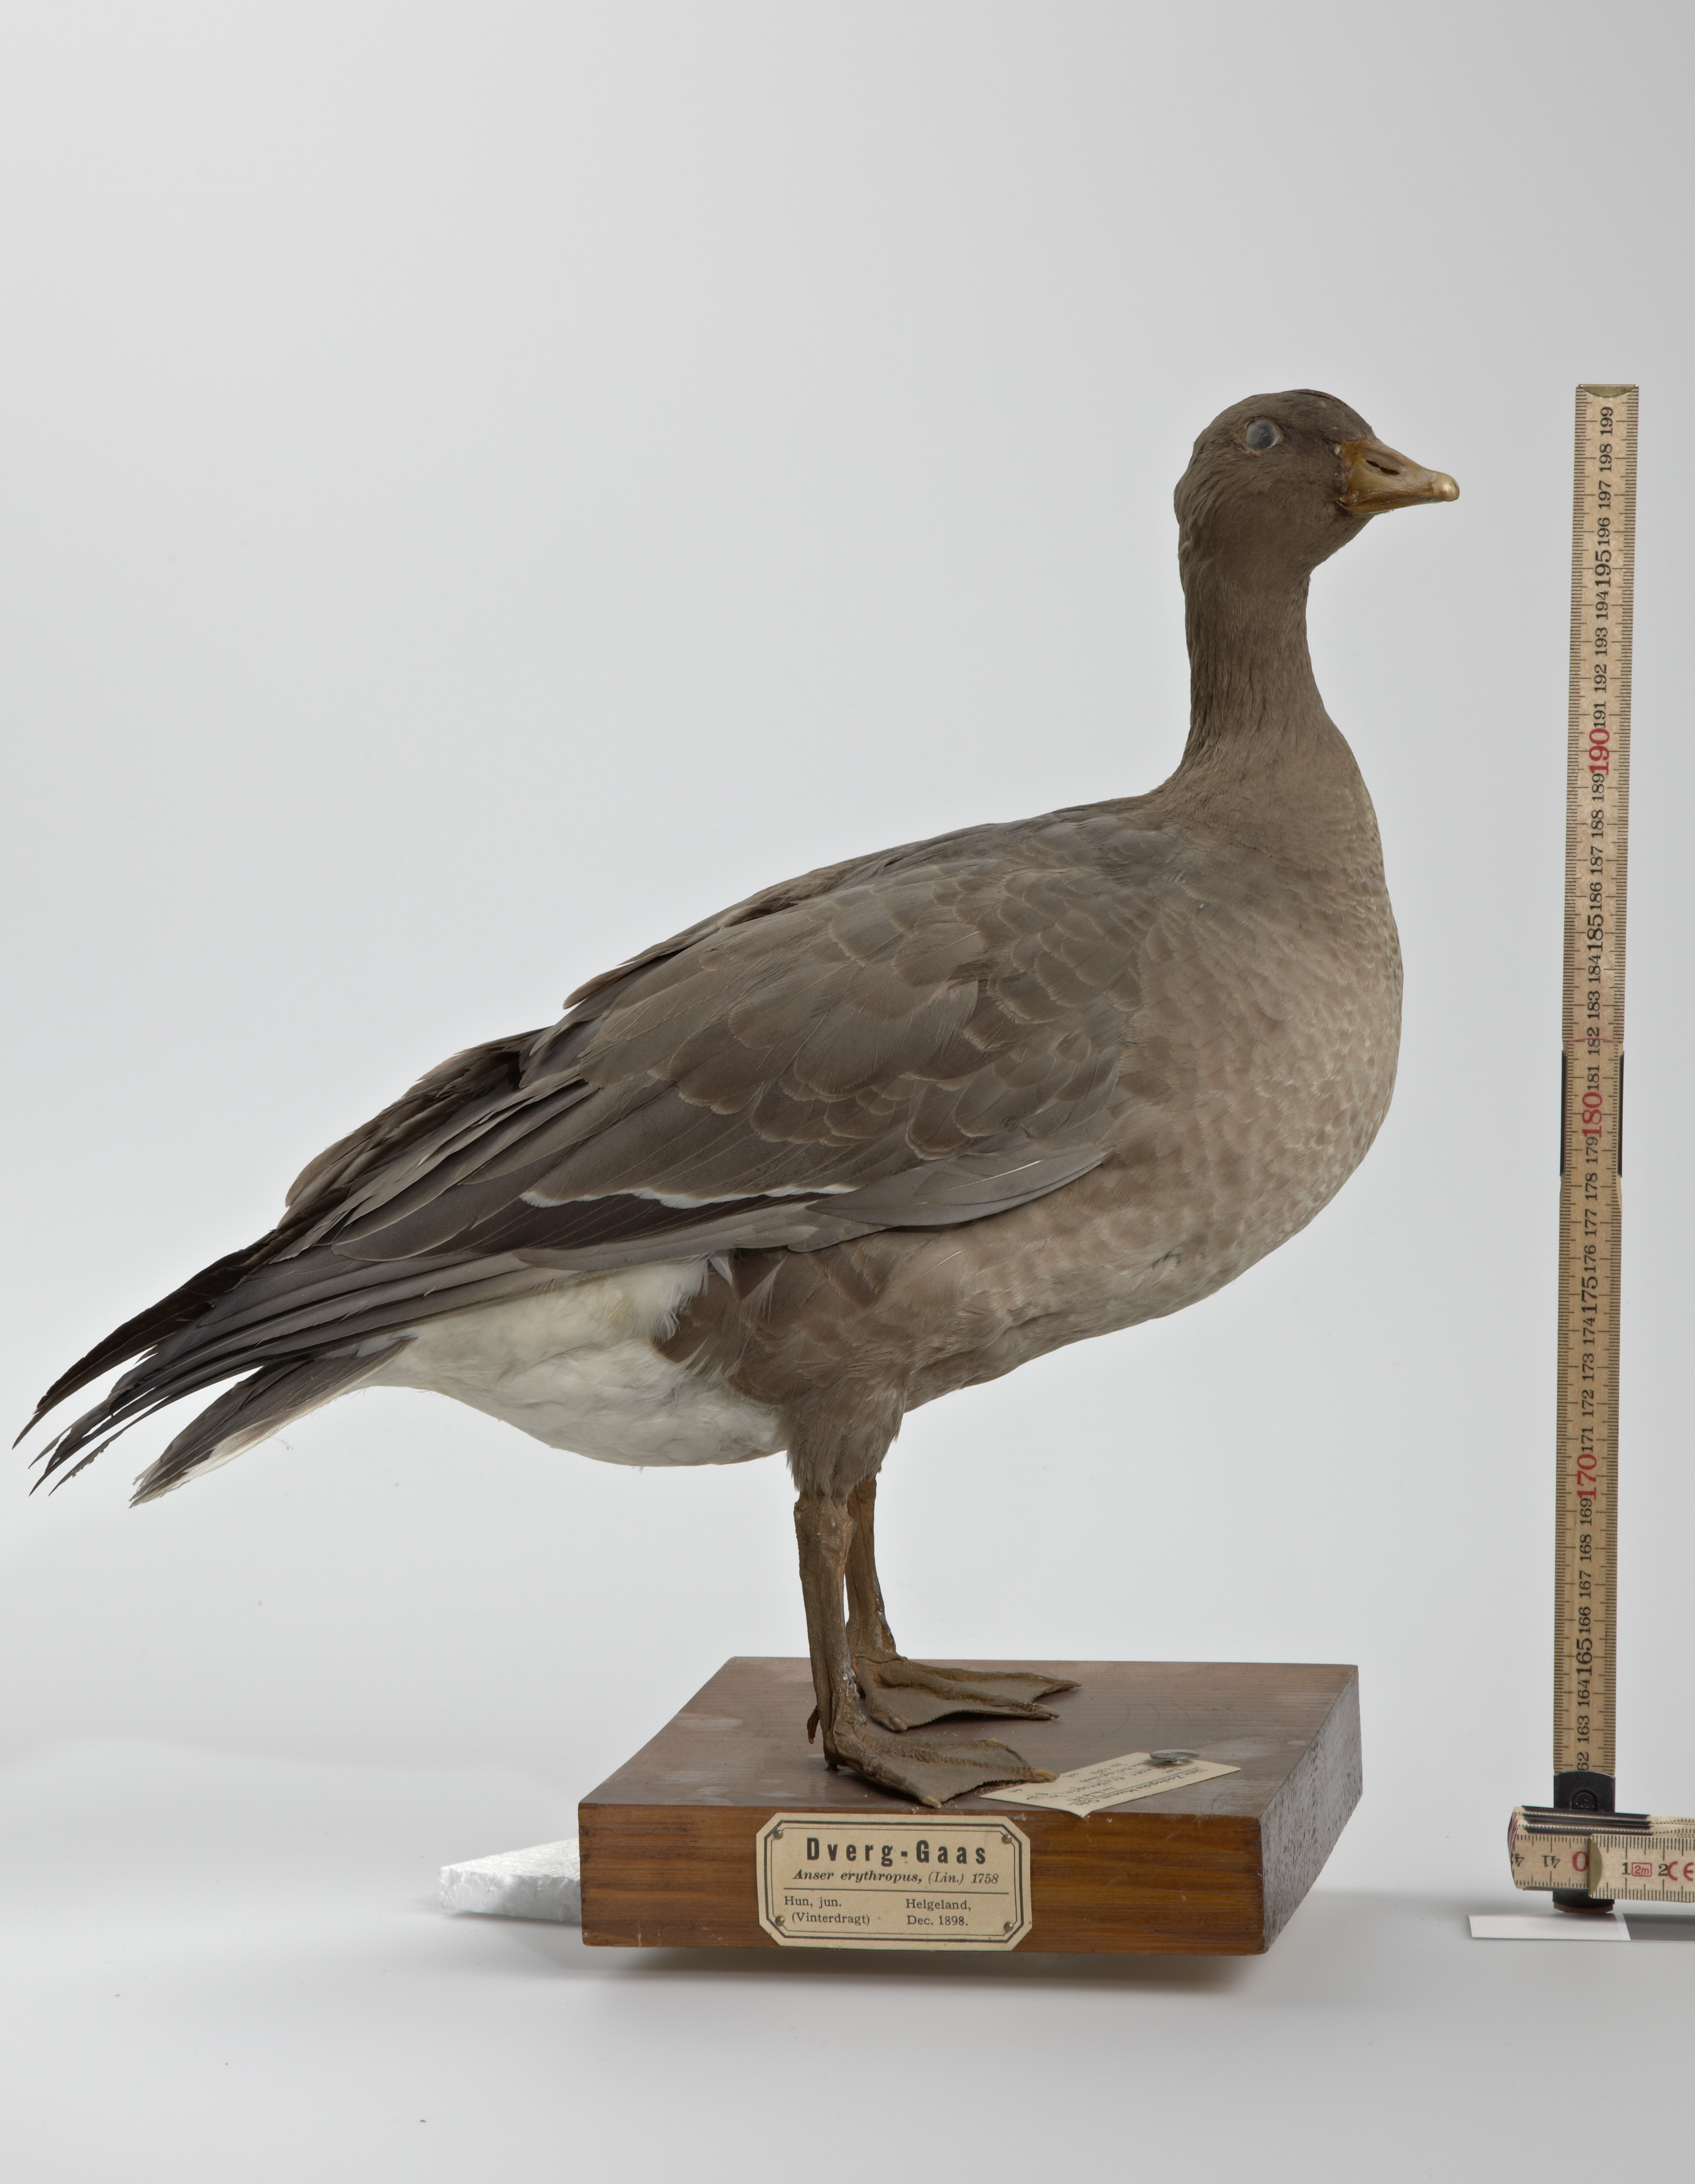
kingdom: Animalia
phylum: Chordata
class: Aves
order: Anseriformes
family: Anatidae
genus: Anser
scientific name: Anser erythropus
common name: Lesser white-fronted goose
